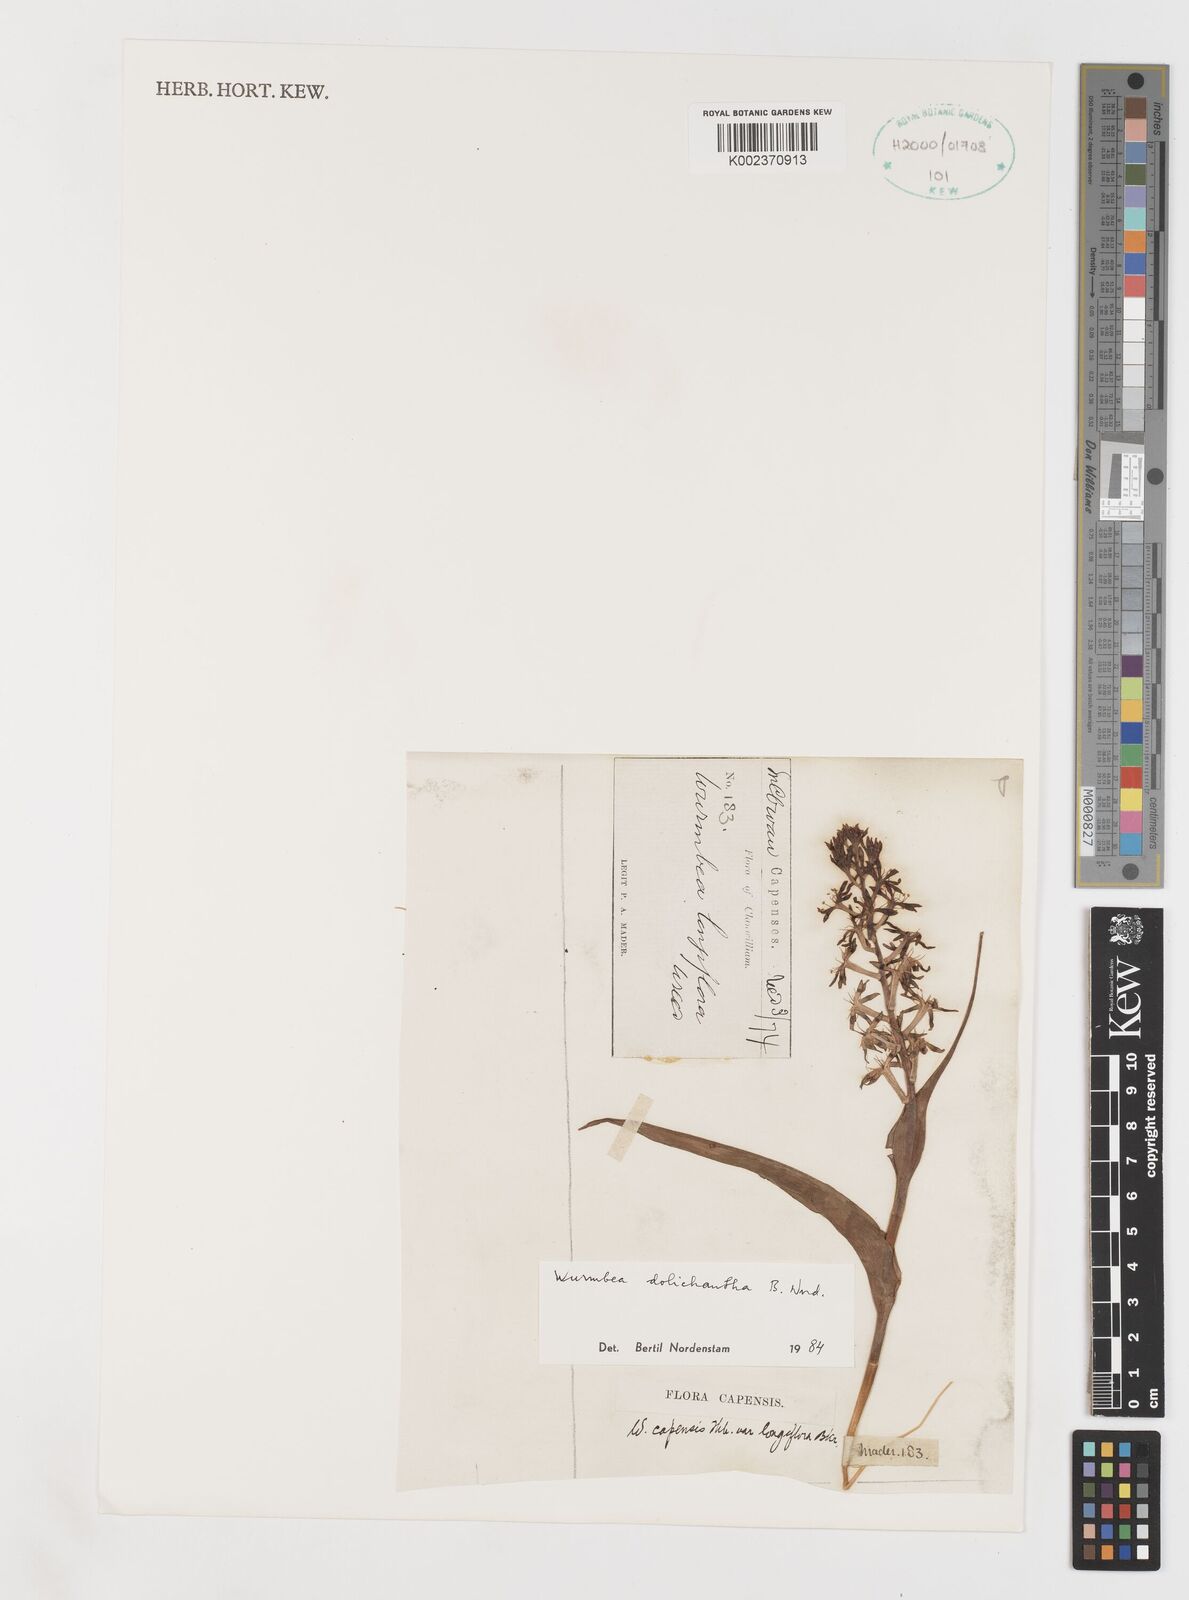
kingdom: Plantae
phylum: Tracheophyta
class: Liliopsida
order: Liliales
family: Colchicaceae
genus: Wurmbea
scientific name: Wurmbea dolichantha
